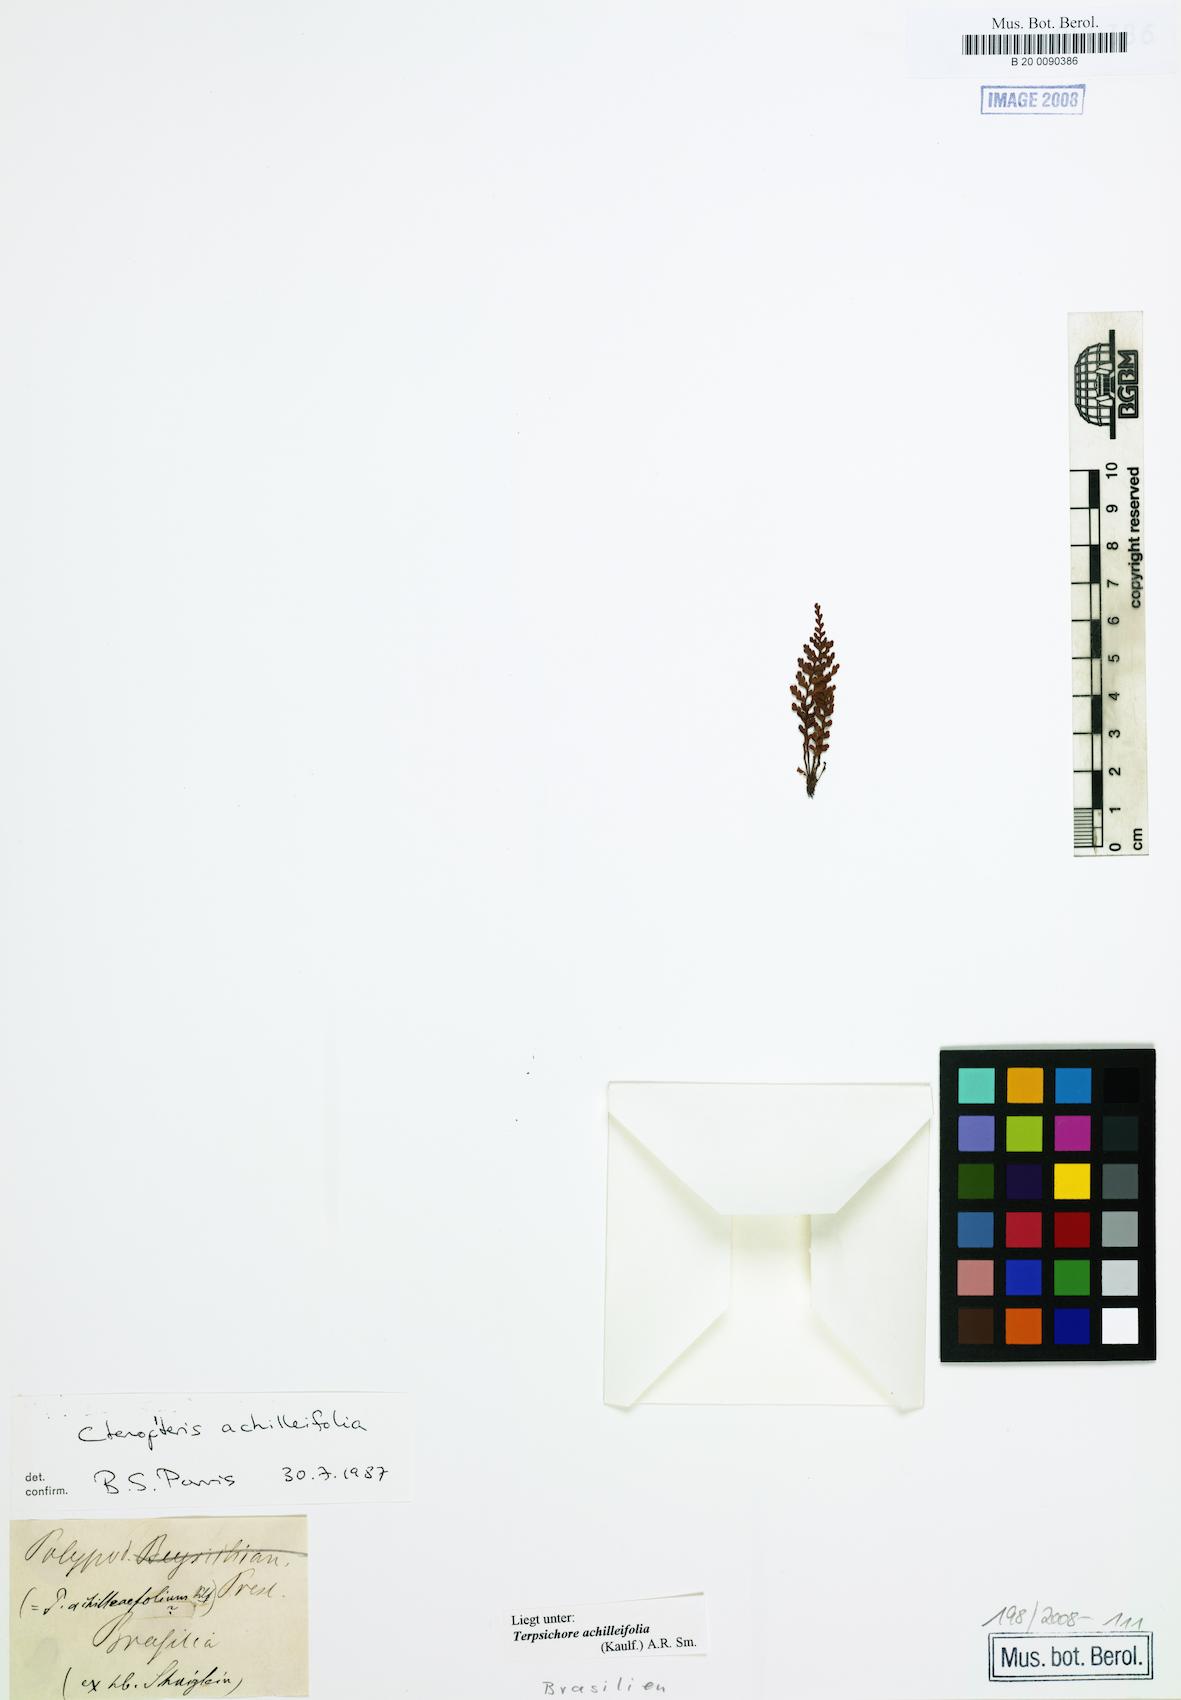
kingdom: Plantae
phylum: Tracheophyta
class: Polypodiopsida
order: Polypodiales
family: Polypodiaceae
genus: Moranopteris
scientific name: Moranopteris achilleifolia
